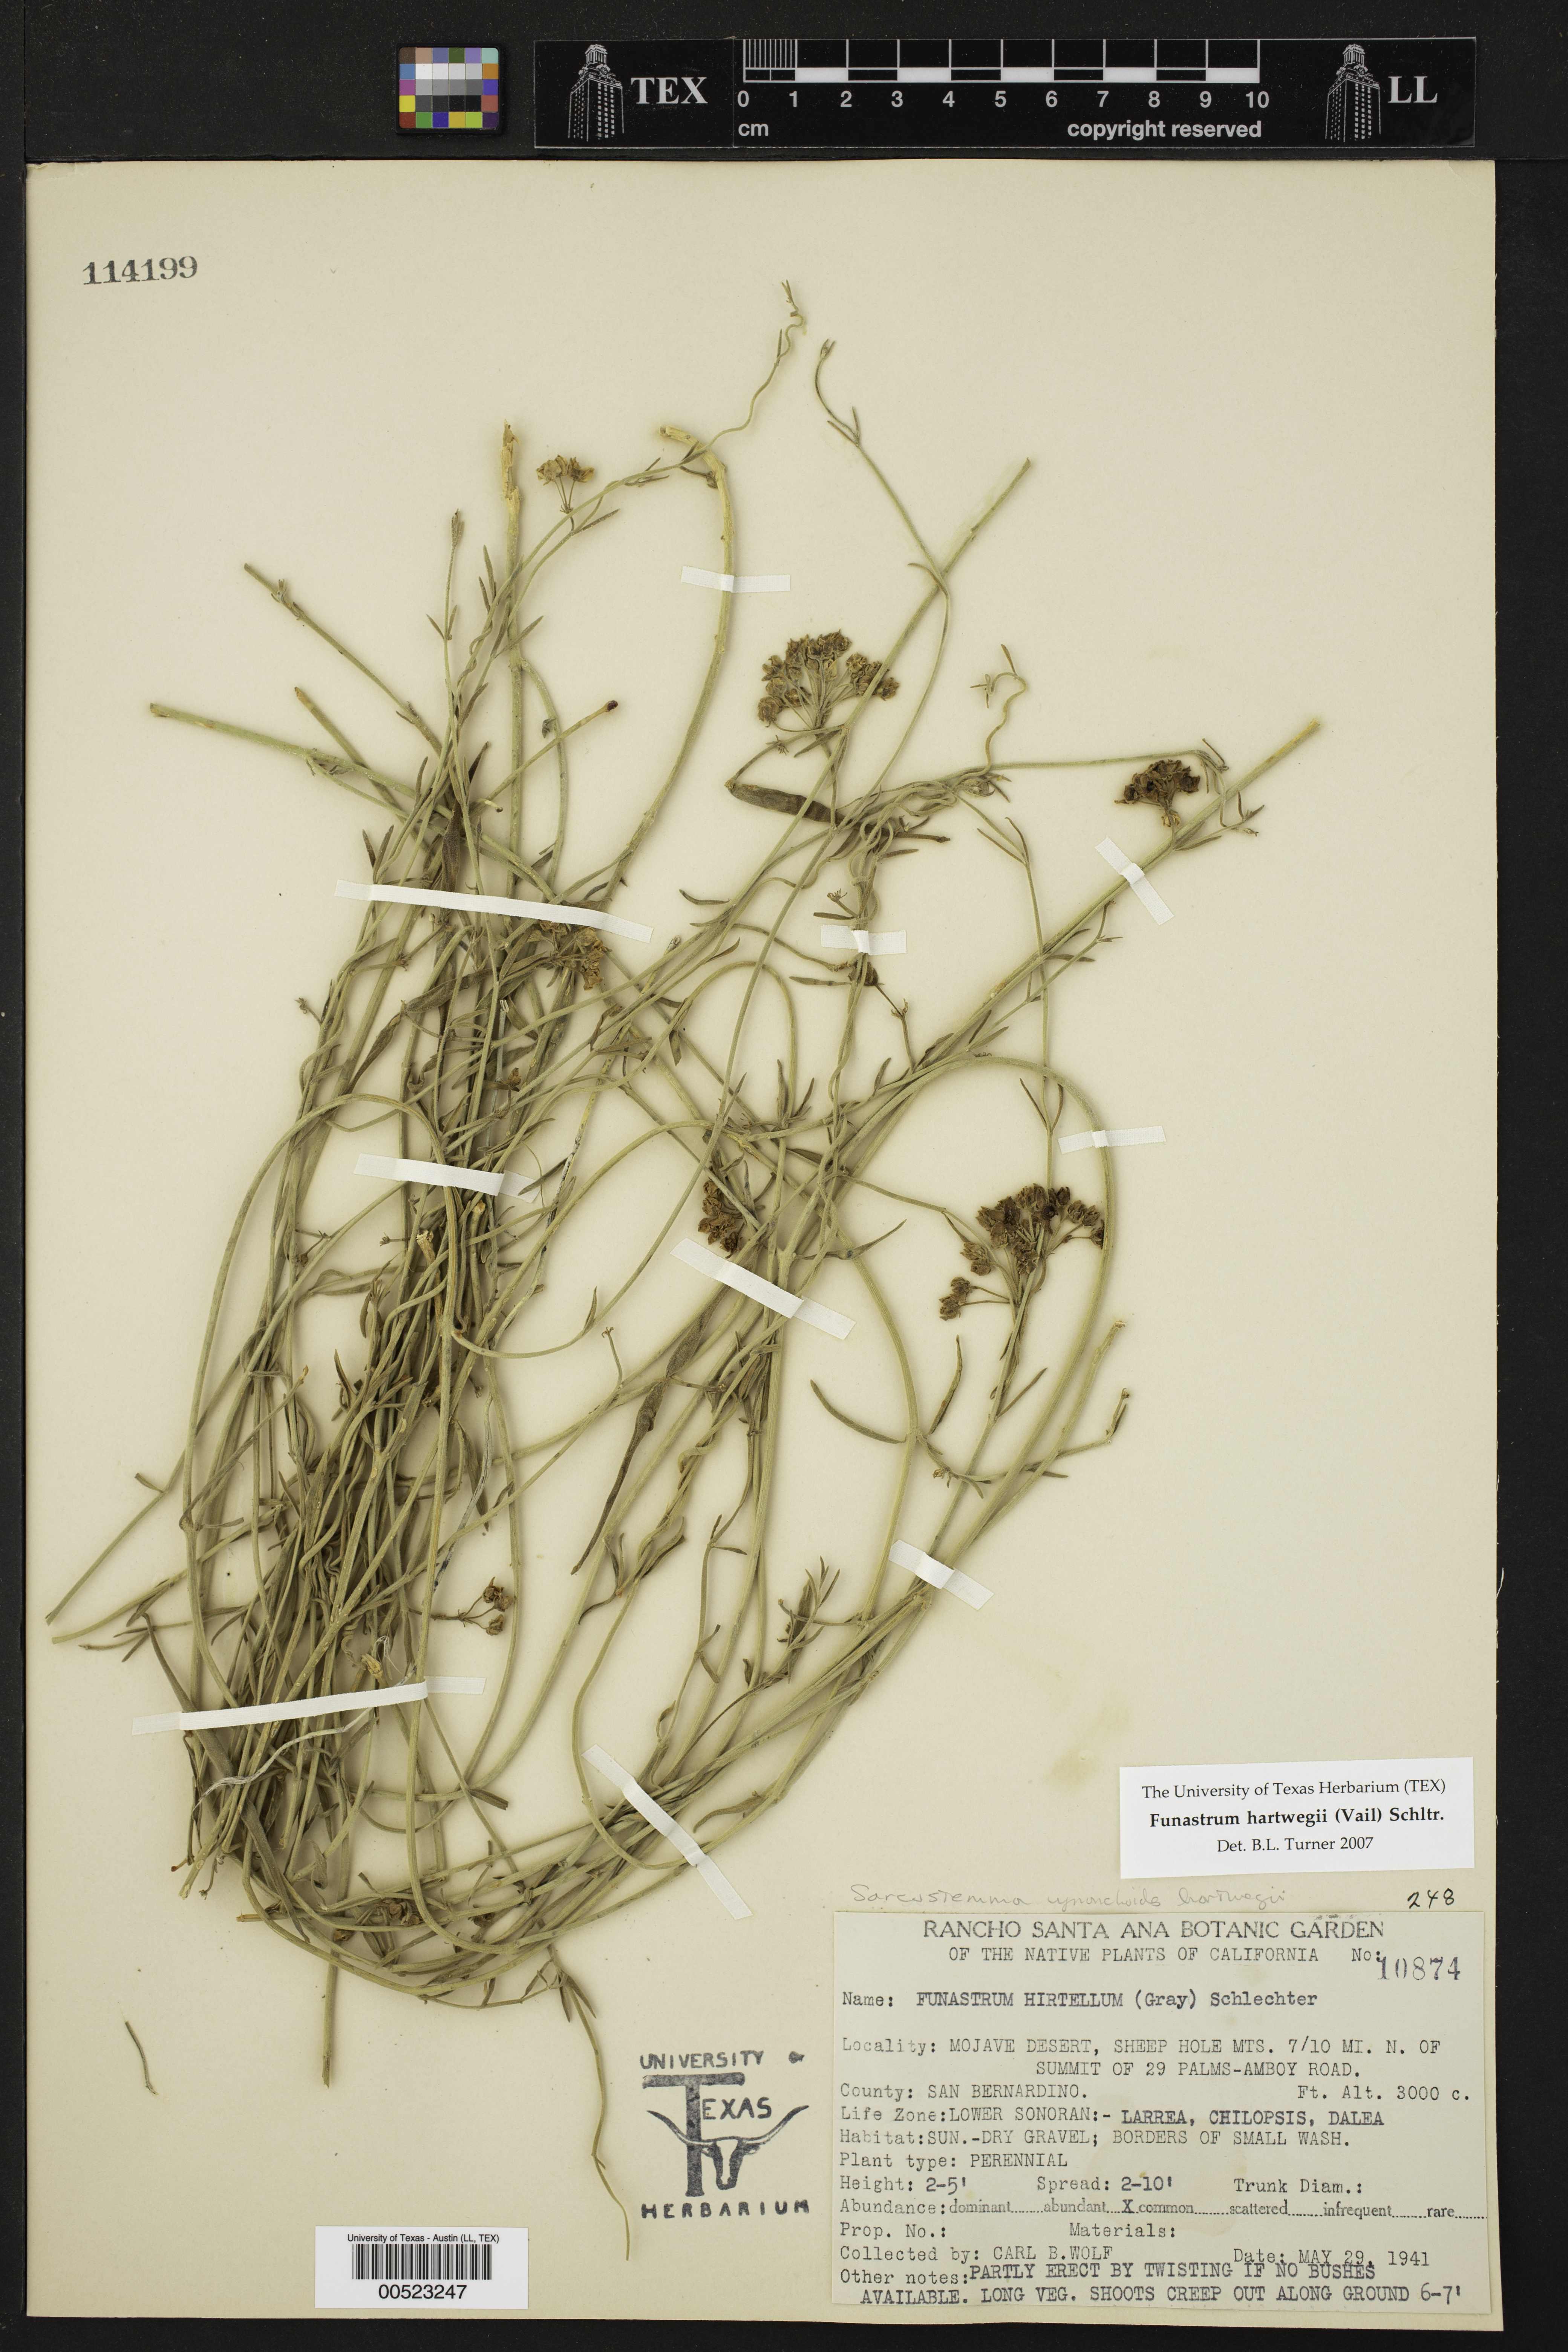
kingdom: Plantae
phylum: Tracheophyta
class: Magnoliopsida
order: Gentianales
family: Apocynaceae
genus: Funastrum
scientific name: Funastrum heterophyllum
